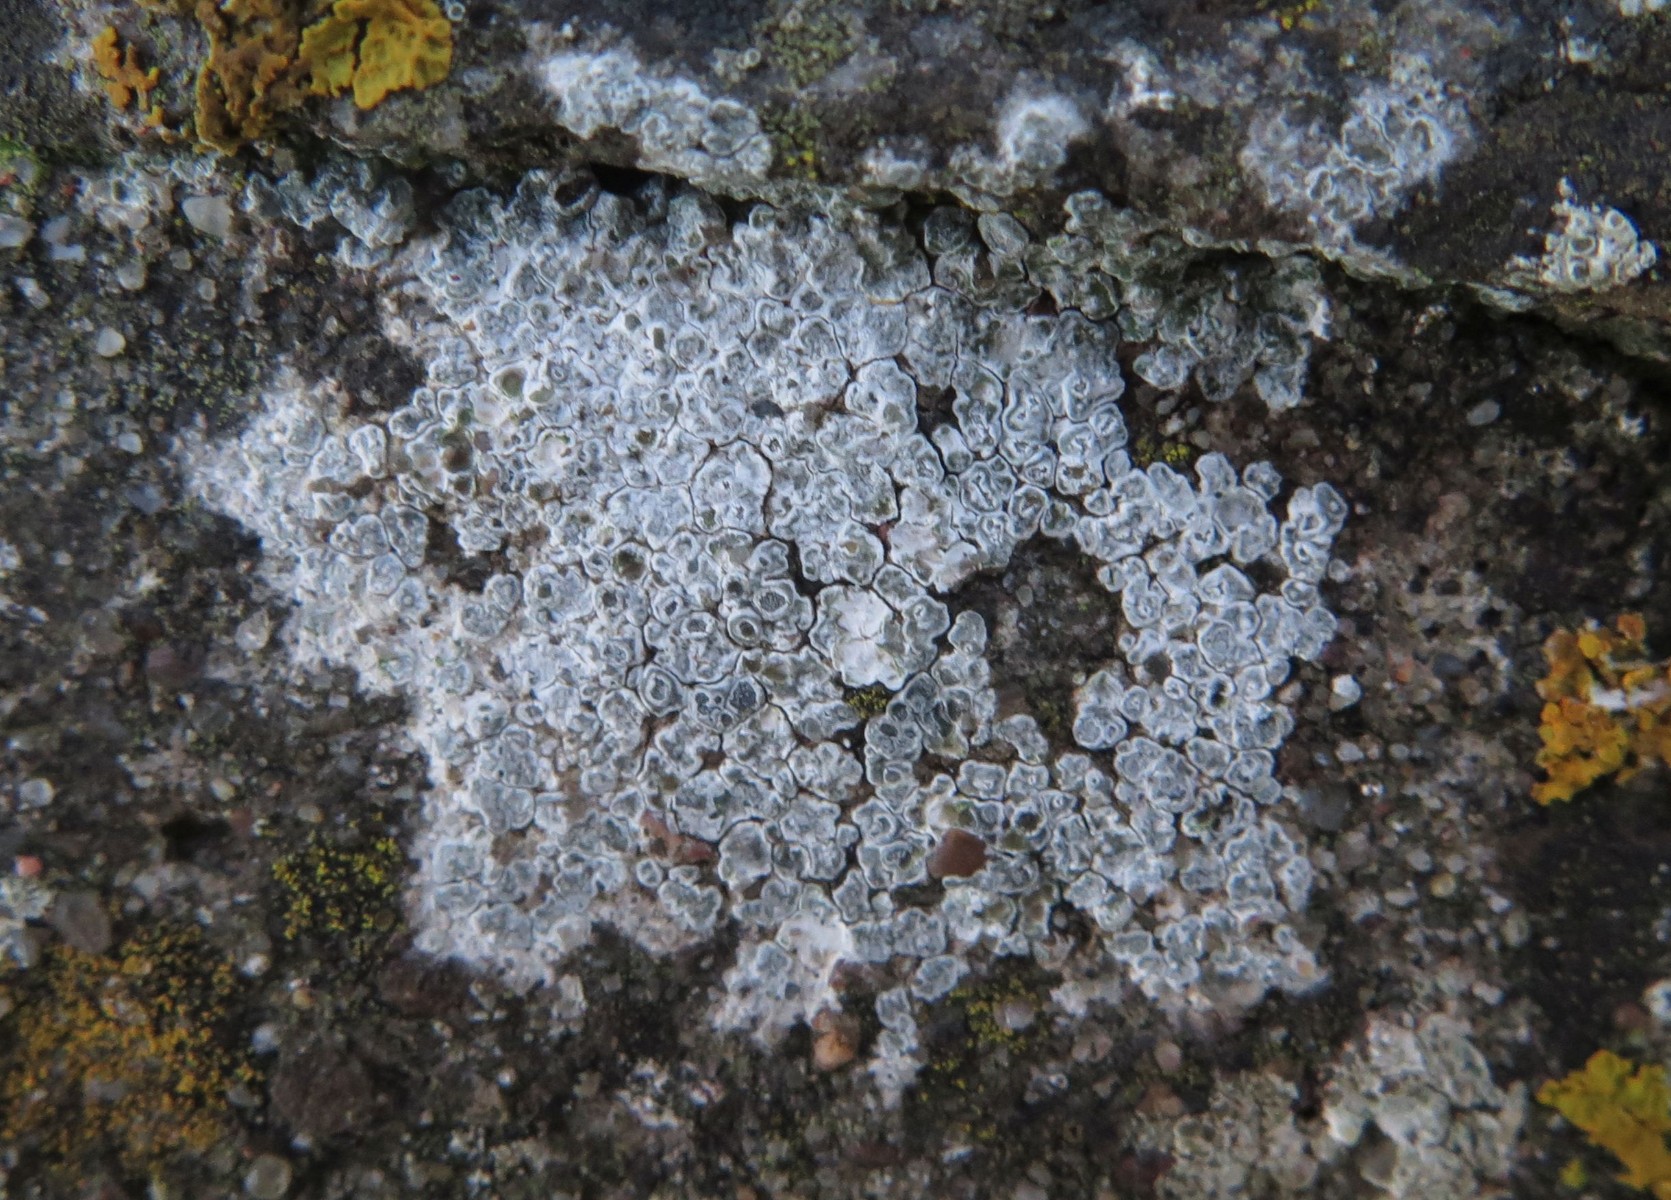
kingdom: Fungi
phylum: Ascomycota
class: Lecanoromycetes
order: Pertusariales
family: Megasporaceae
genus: Circinaria
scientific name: Circinaria contorta
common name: indviklet hulskivelav
